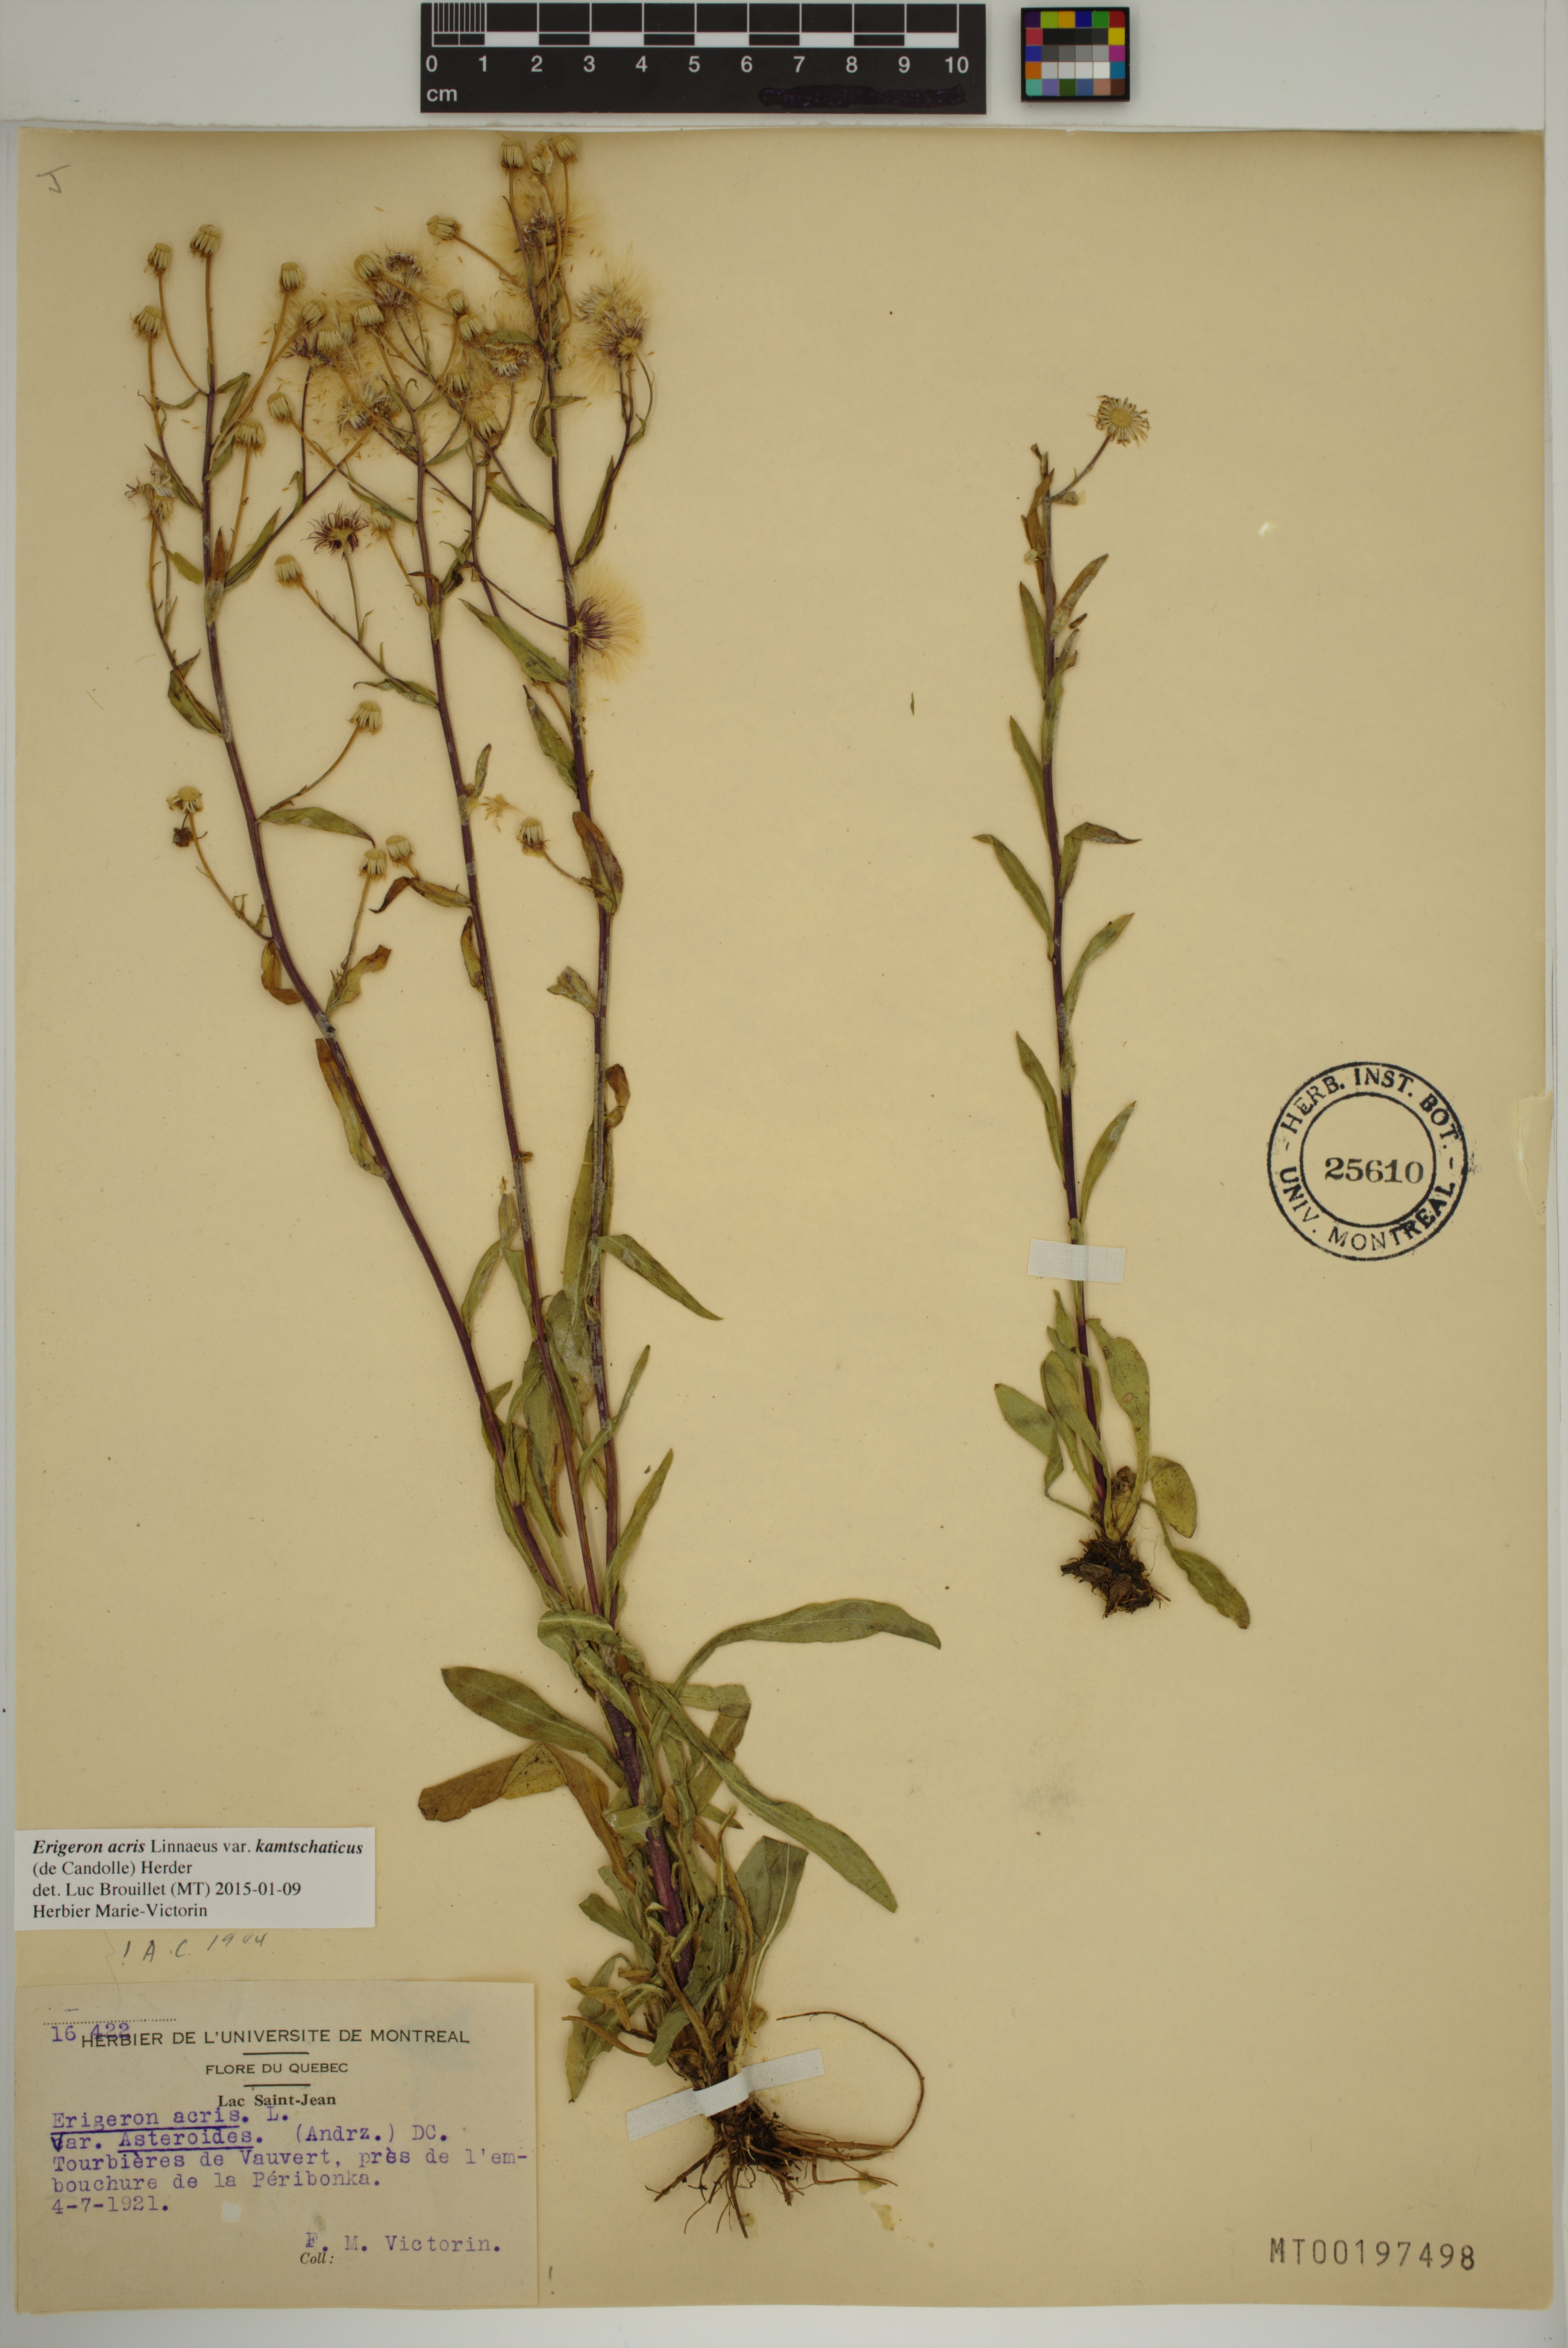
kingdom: Plantae
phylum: Tracheophyta
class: Magnoliopsida
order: Asterales
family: Asteraceae
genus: Erigeron
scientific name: Erigeron kamtschaticus
